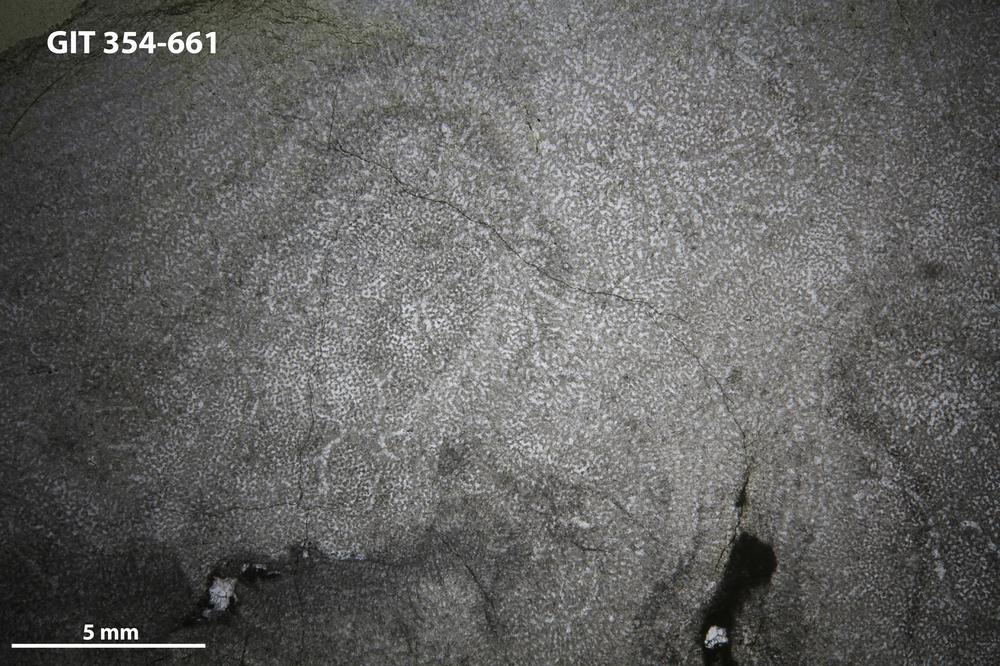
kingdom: Animalia
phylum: Porifera
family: Pseudolabechiidae
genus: Vikingia
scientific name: Vikingia
